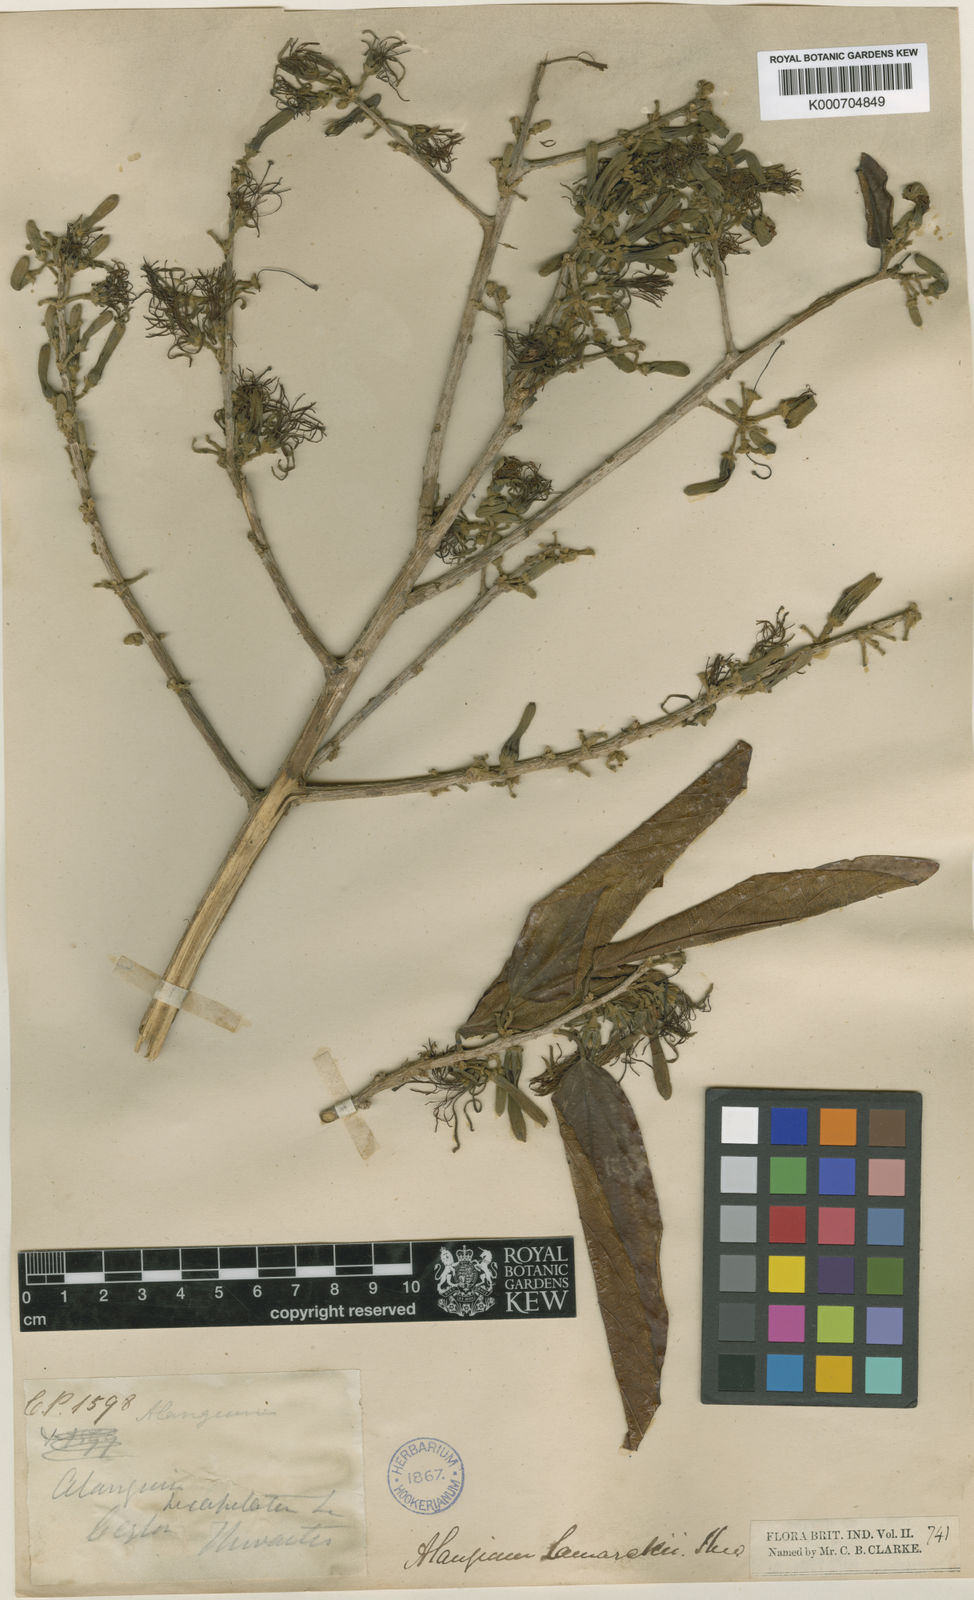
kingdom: Plantae
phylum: Tracheophyta
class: Magnoliopsida
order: Cornales
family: Cornaceae
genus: Alangium
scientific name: Alangium salviifolium
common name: Sage-leaf alangium
